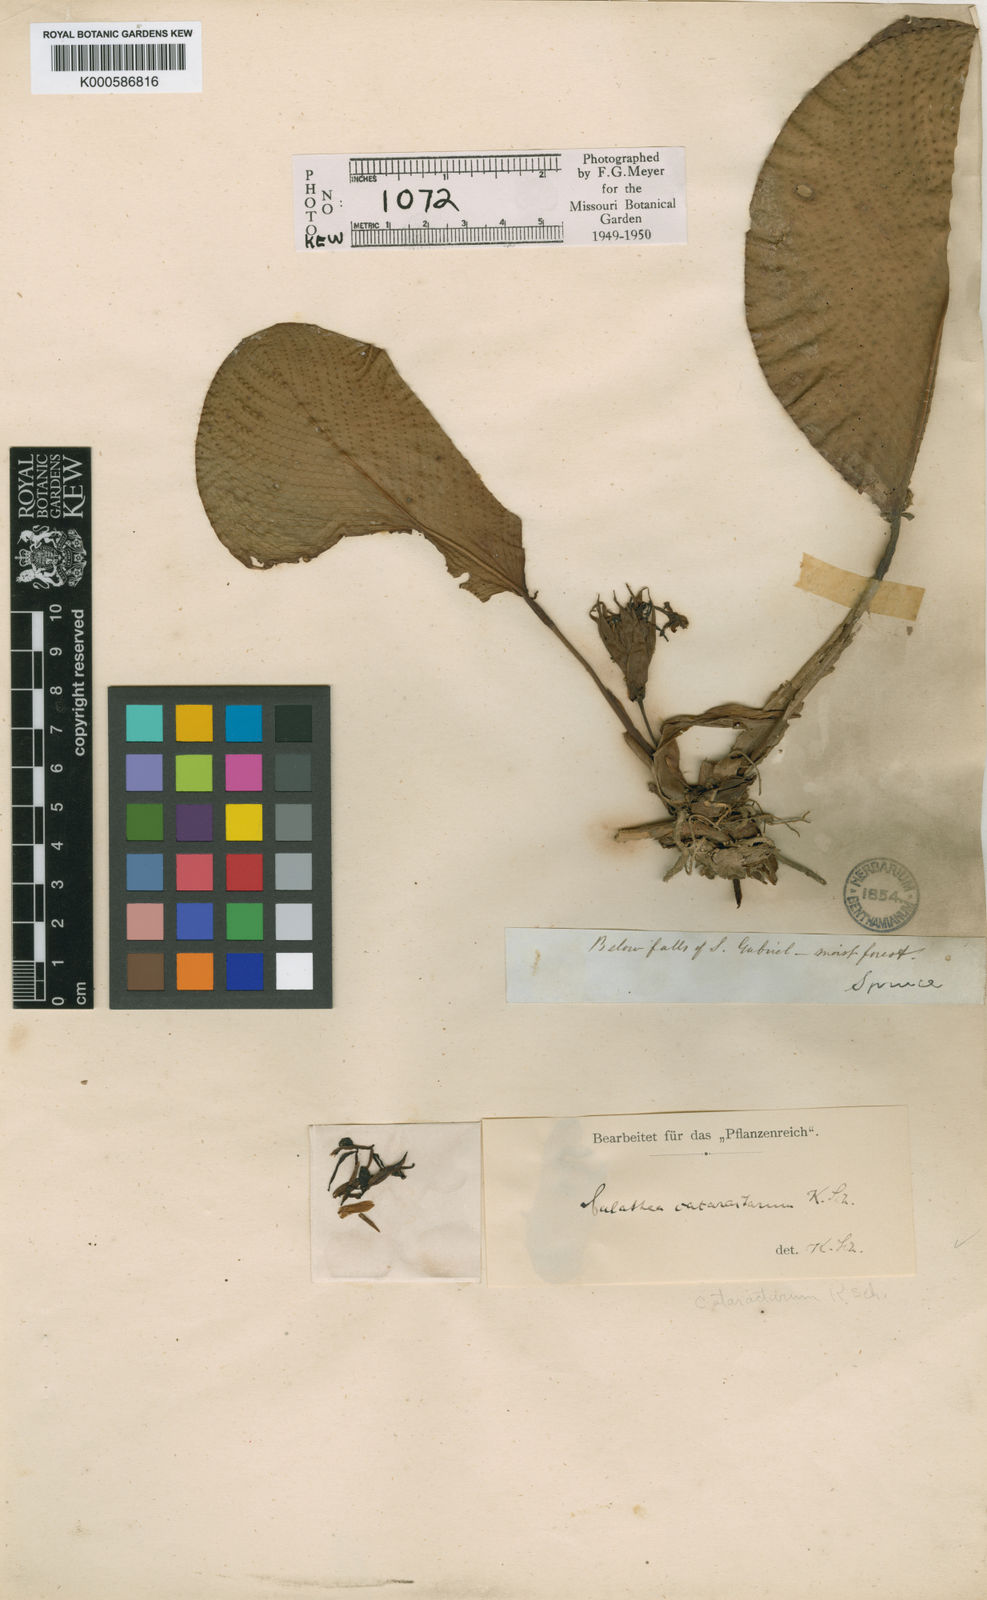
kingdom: Plantae
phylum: Tracheophyta
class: Liliopsida
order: Zingiberales
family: Marantaceae
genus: Goeppertia
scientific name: Goeppertia cataractarum
